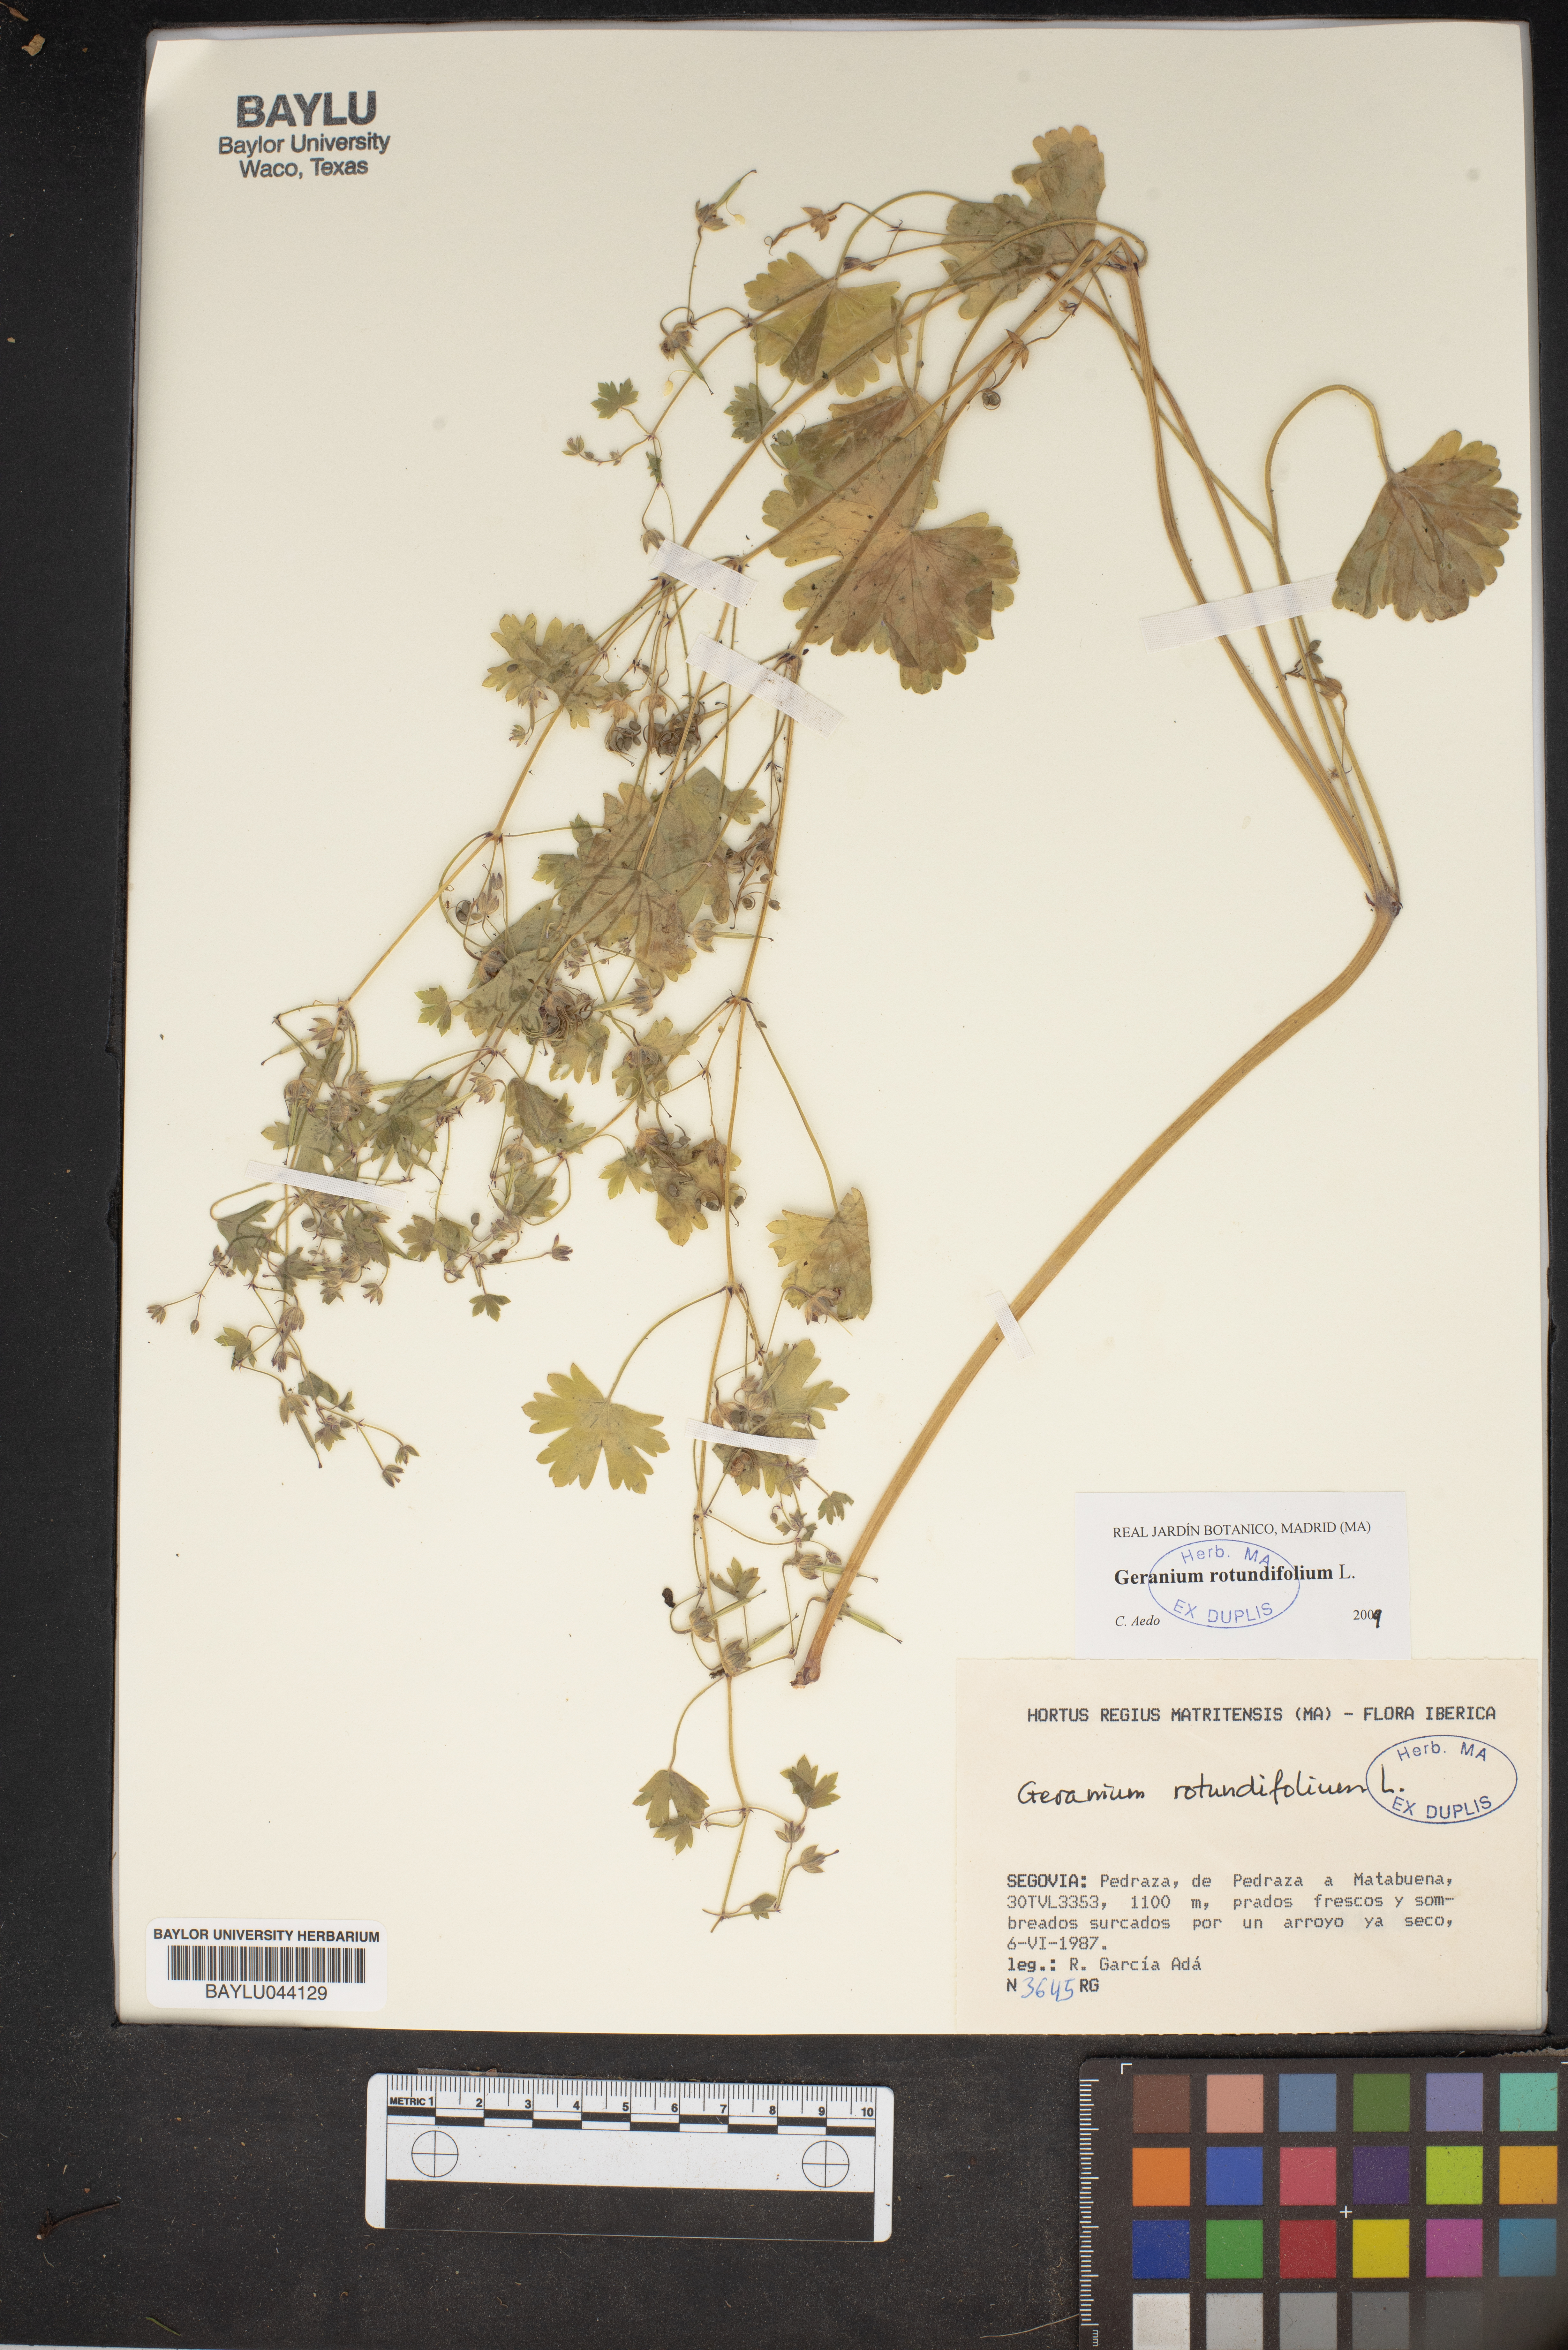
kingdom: Plantae
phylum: Tracheophyta
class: Magnoliopsida
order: Geraniales
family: Geraniaceae
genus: Geranium
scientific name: Geranium rotundifolium
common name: Round-leaved crane's-bill
